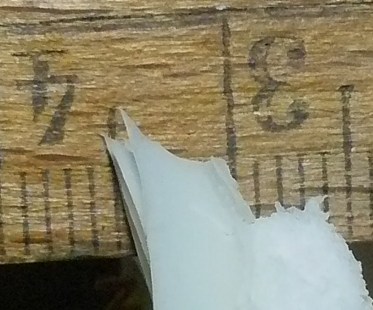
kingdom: Fungi
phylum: Basidiomycota
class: Agaricomycetes
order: Russulales
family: Russulaceae
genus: Russula
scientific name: Russula chloroides
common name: grønhalset tragt-skørhat
